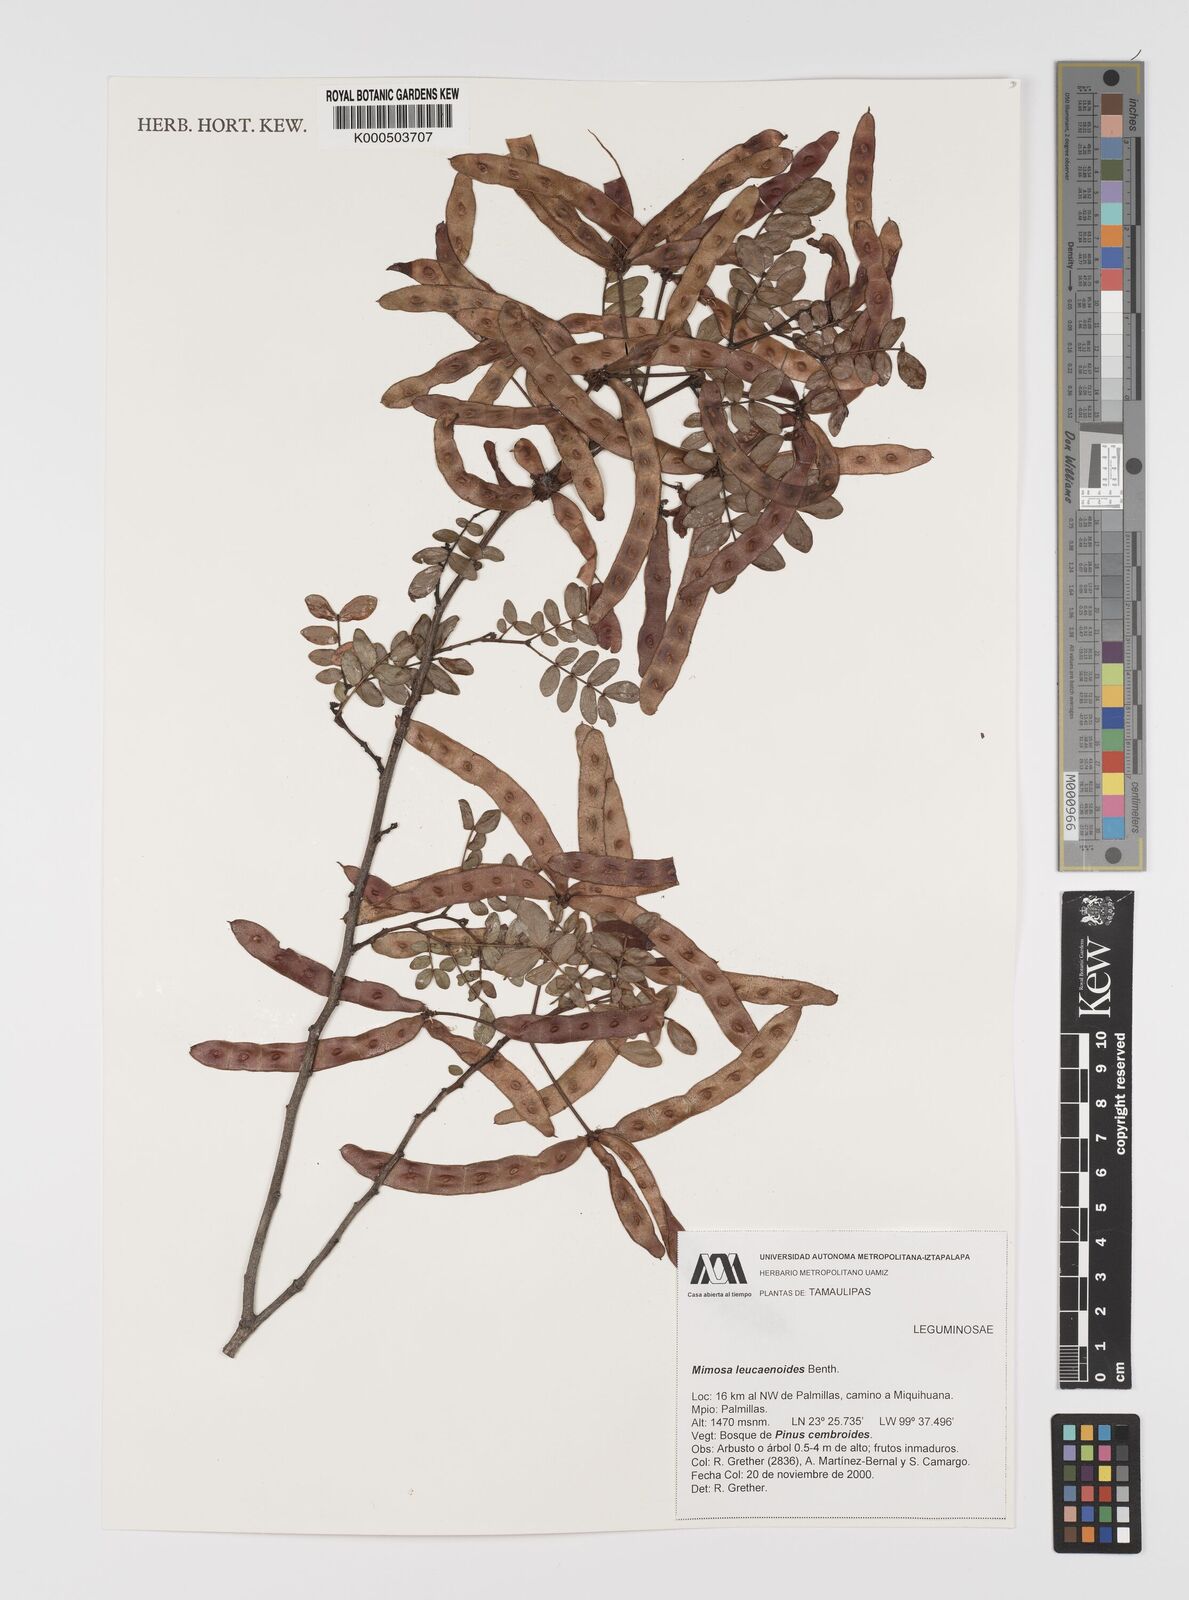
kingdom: Plantae
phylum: Tracheophyta
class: Magnoliopsida
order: Fabales
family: Fabaceae
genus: Mimosa
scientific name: Mimosa leucaenoides
